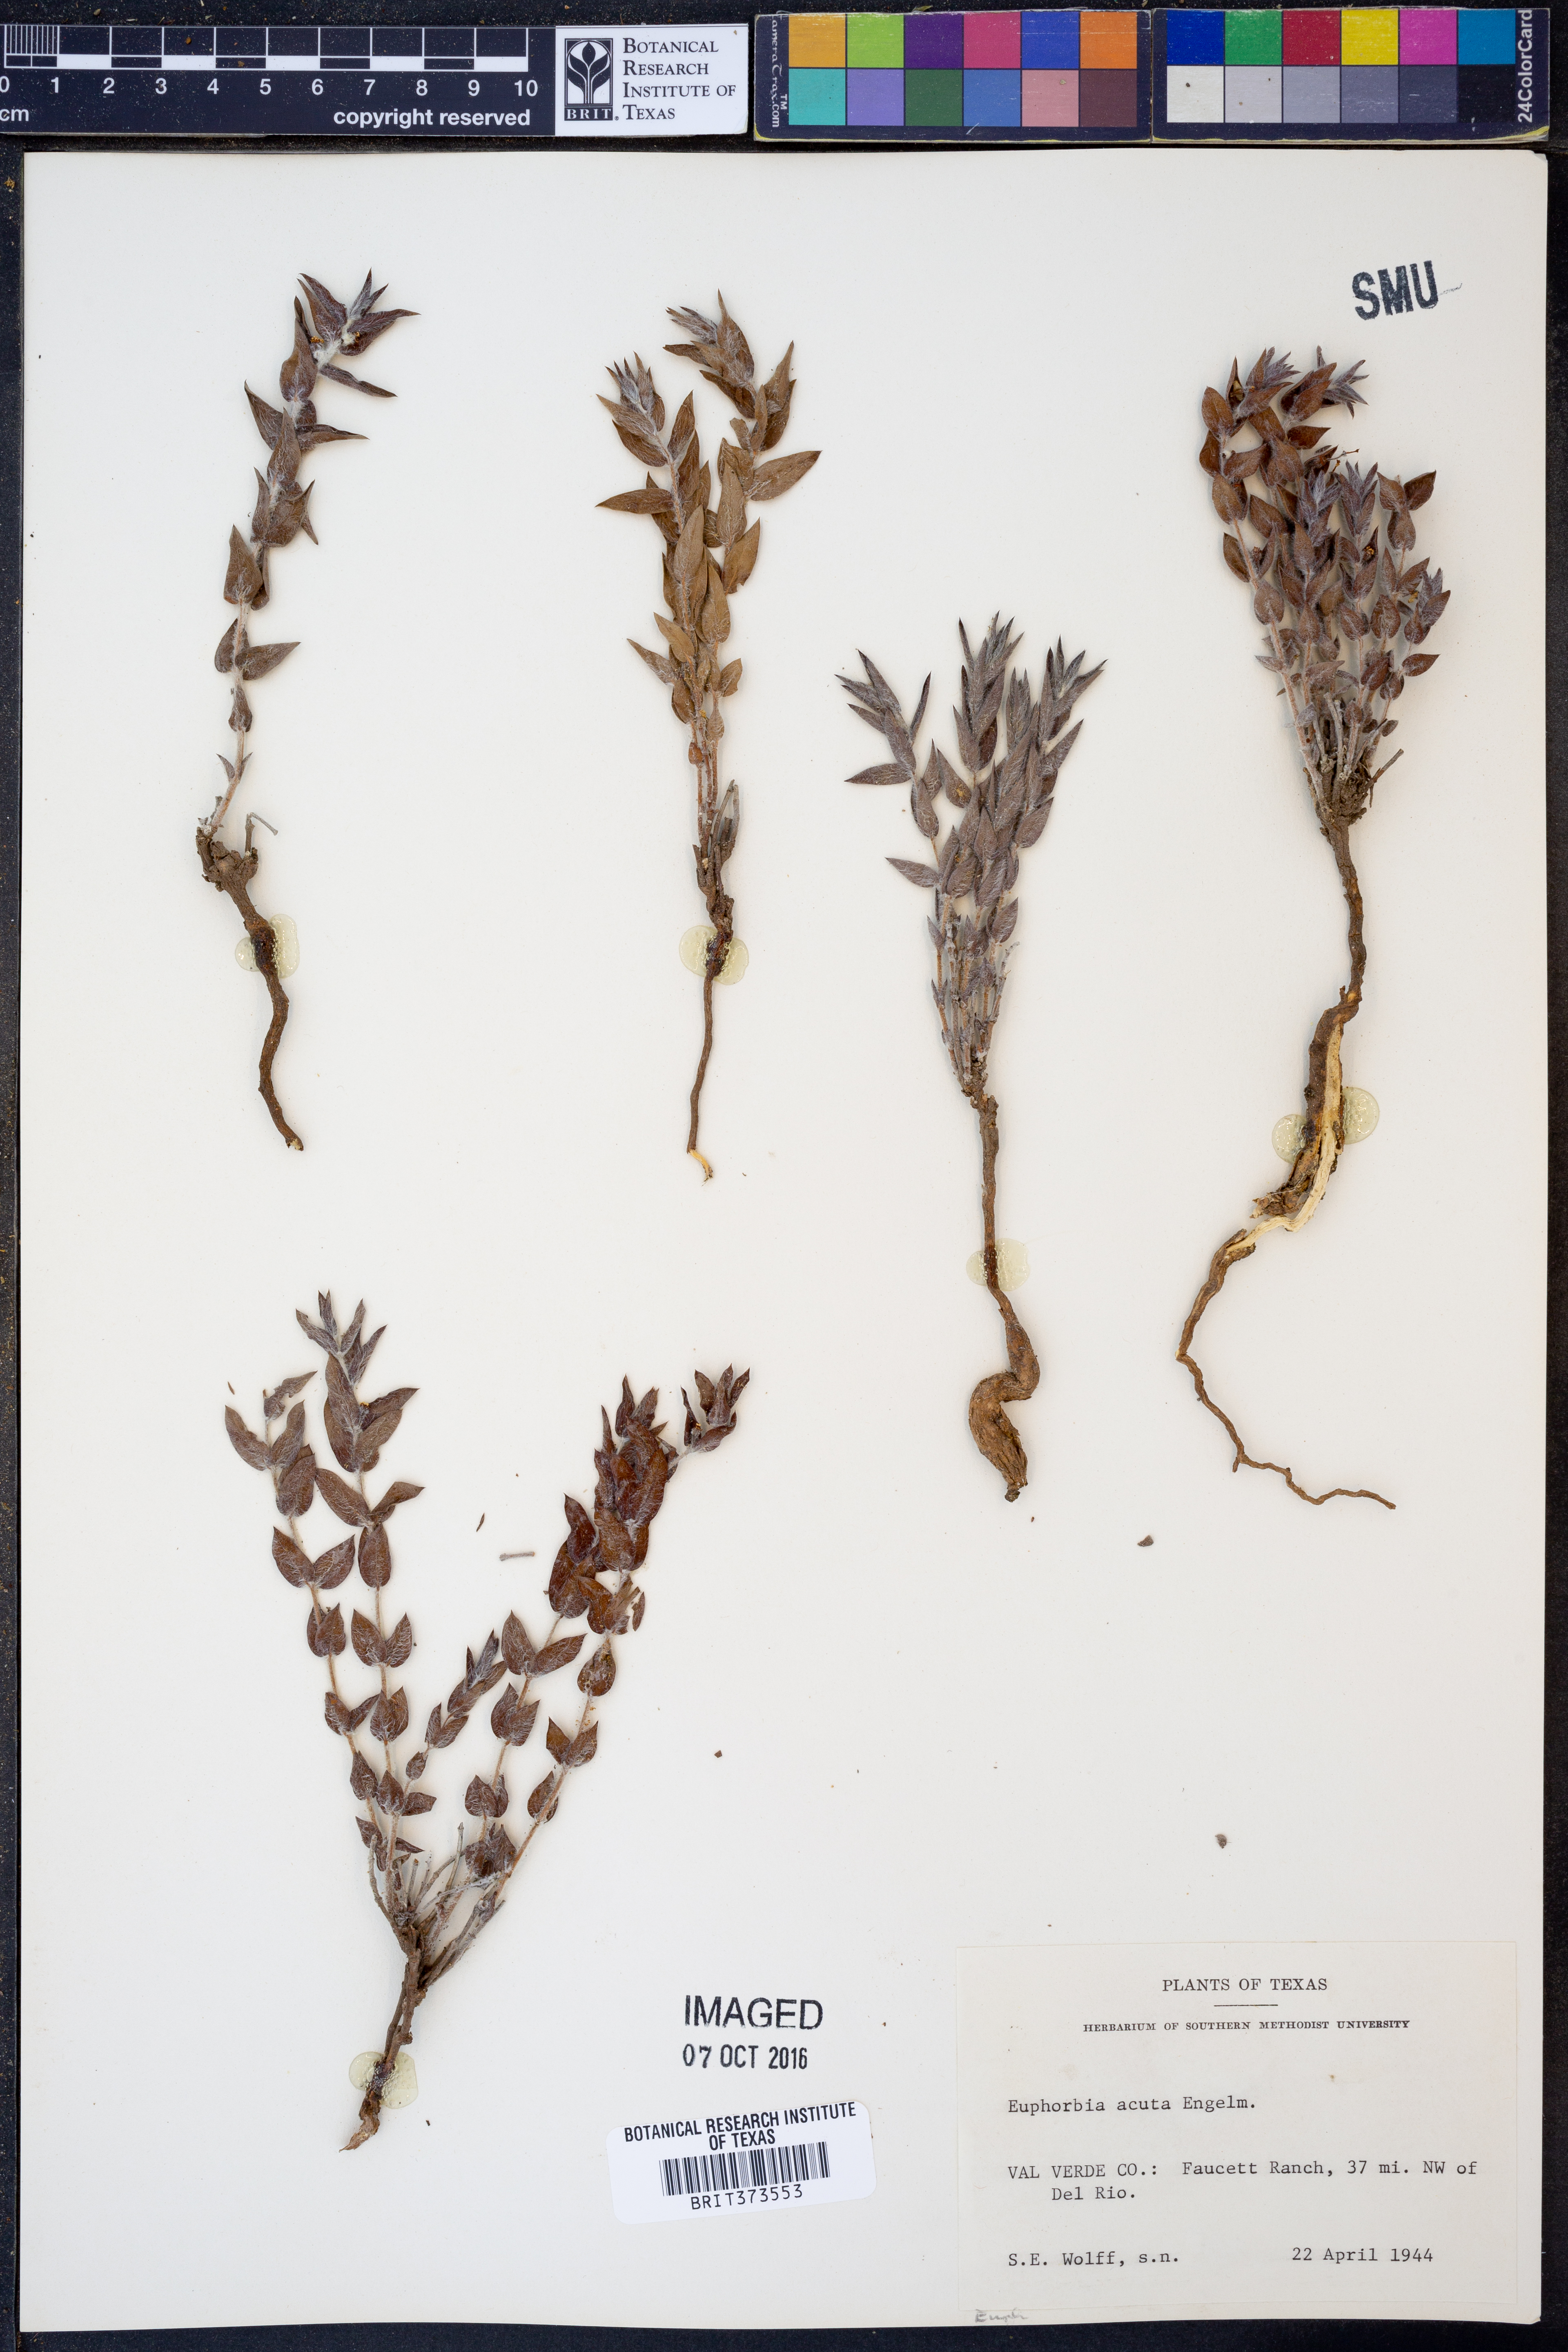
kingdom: Plantae
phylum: Tracheophyta
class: Magnoliopsida
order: Malpighiales
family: Euphorbiaceae
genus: Euphorbia
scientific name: Euphorbia acuta
